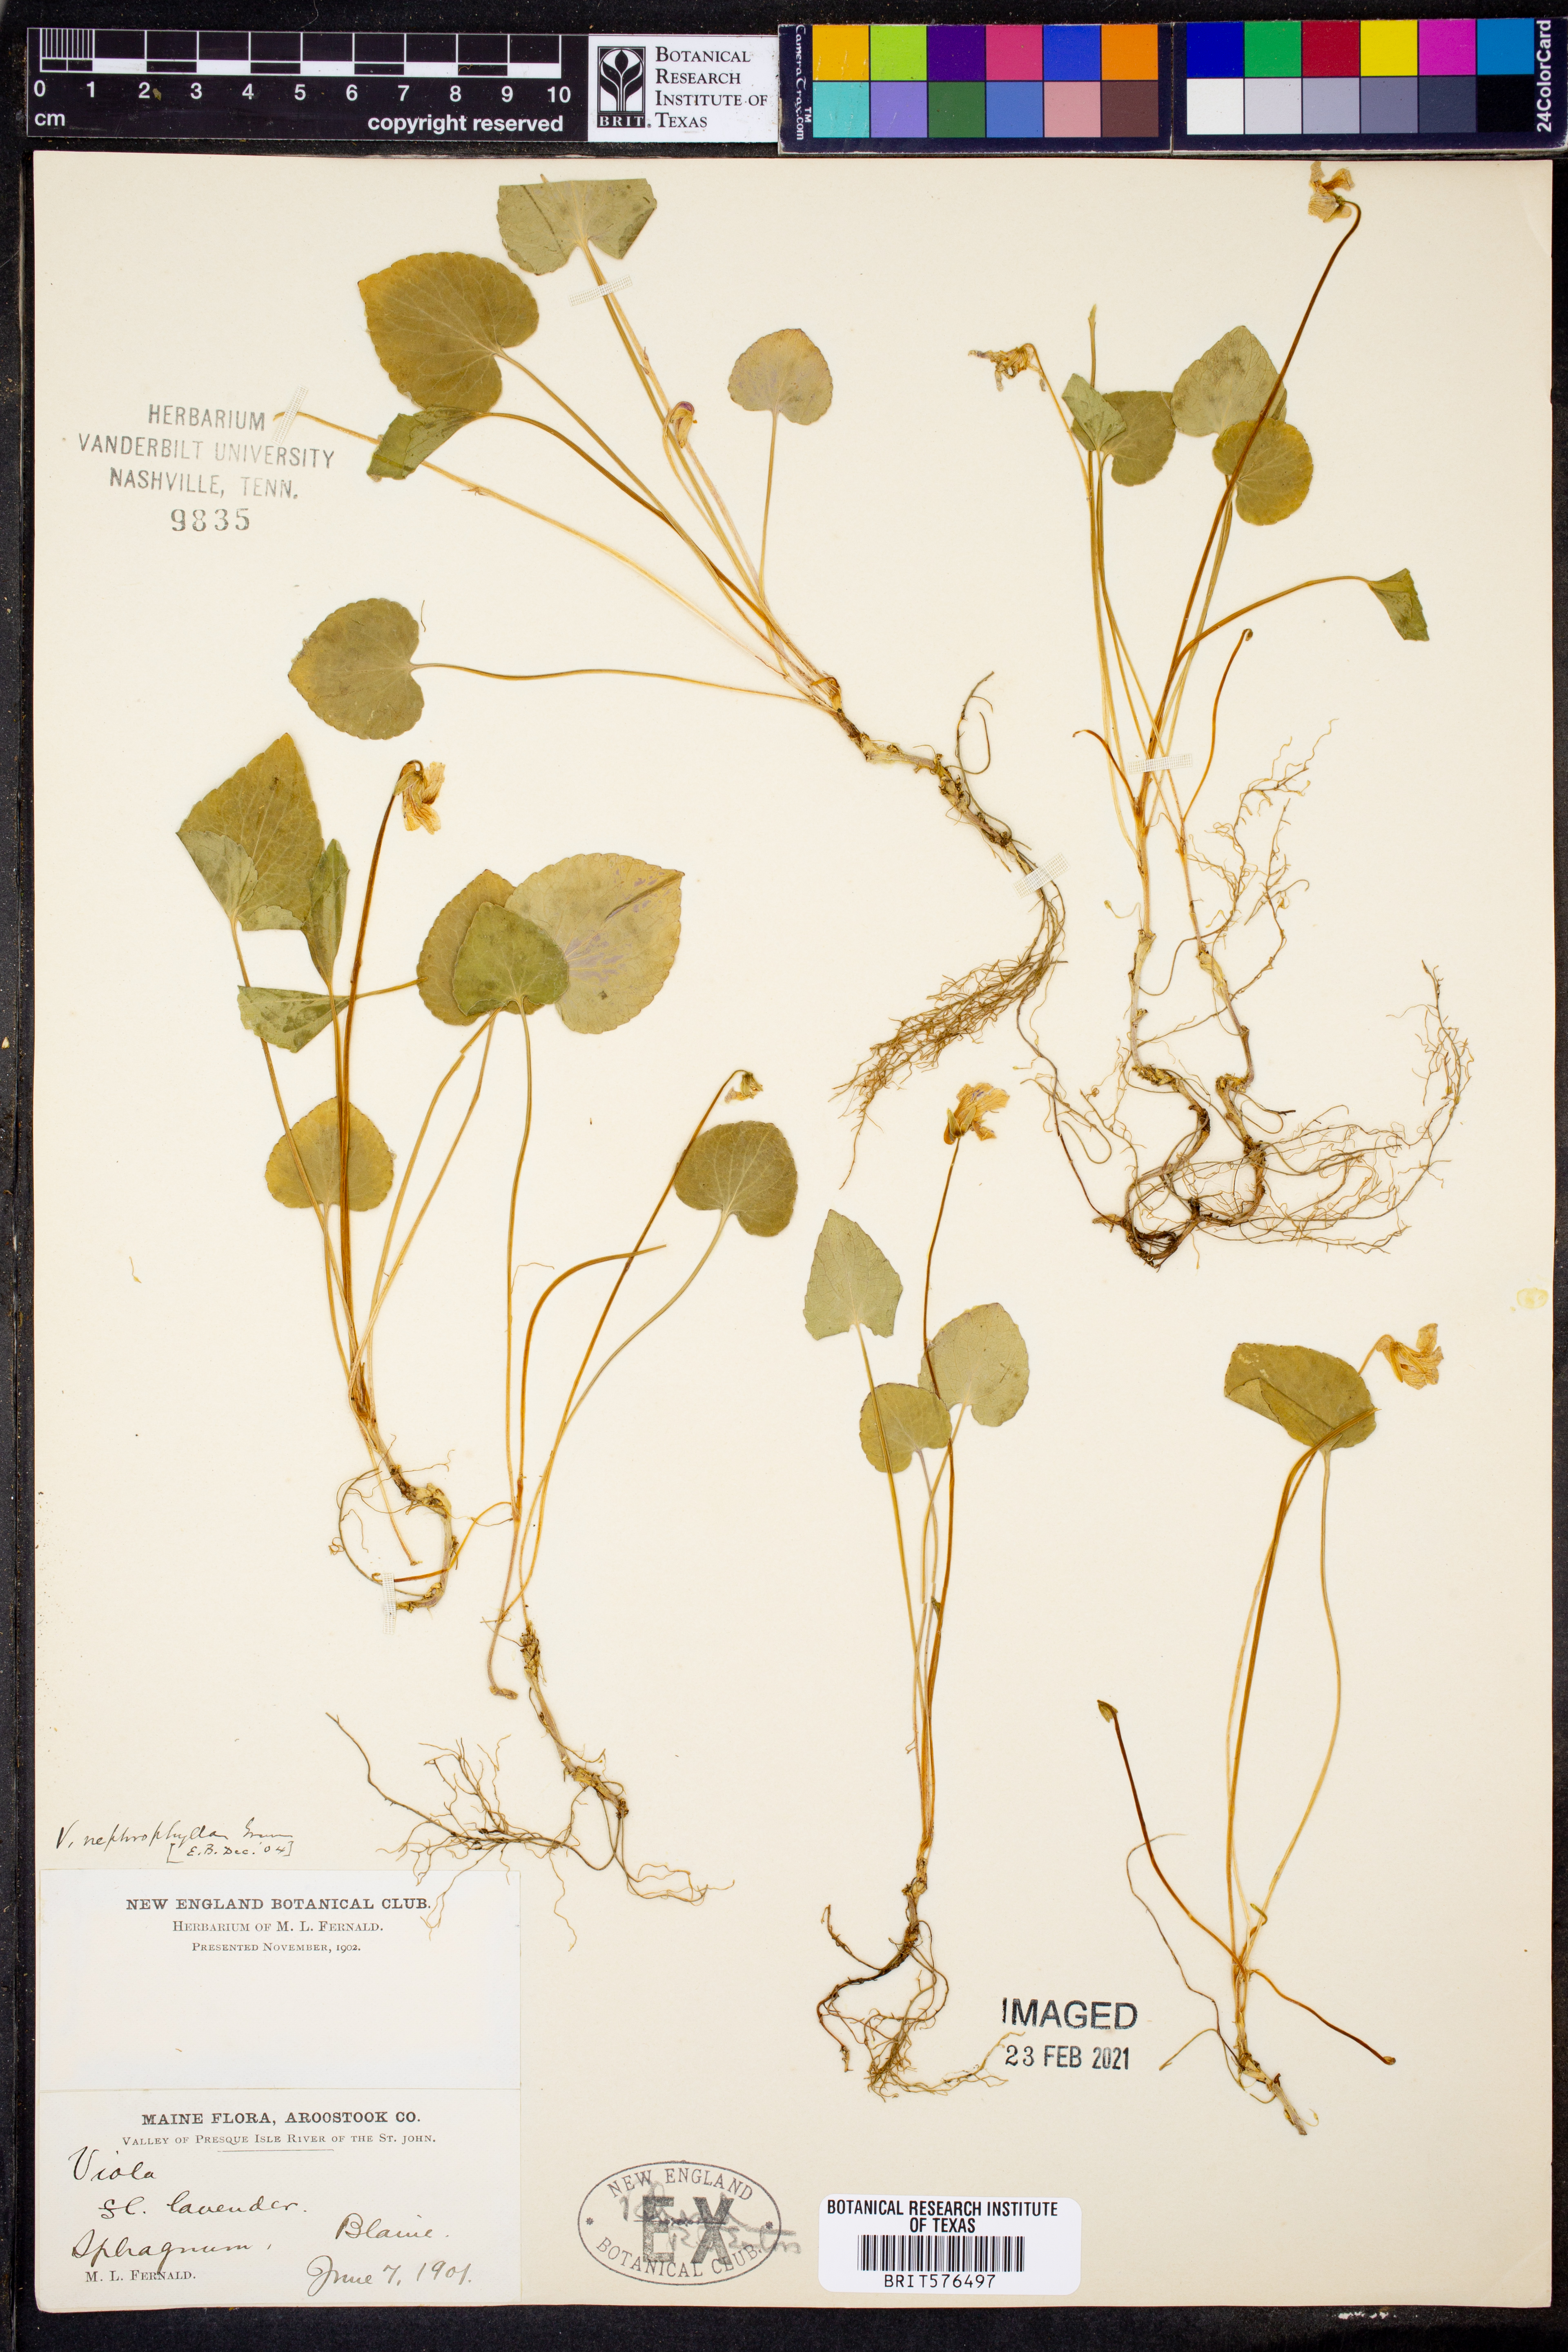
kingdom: Plantae
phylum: Tracheophyta
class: Magnoliopsida
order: Malpighiales
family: Violaceae
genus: Viola
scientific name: Viola nephrophylla
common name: Blue meadow violet
